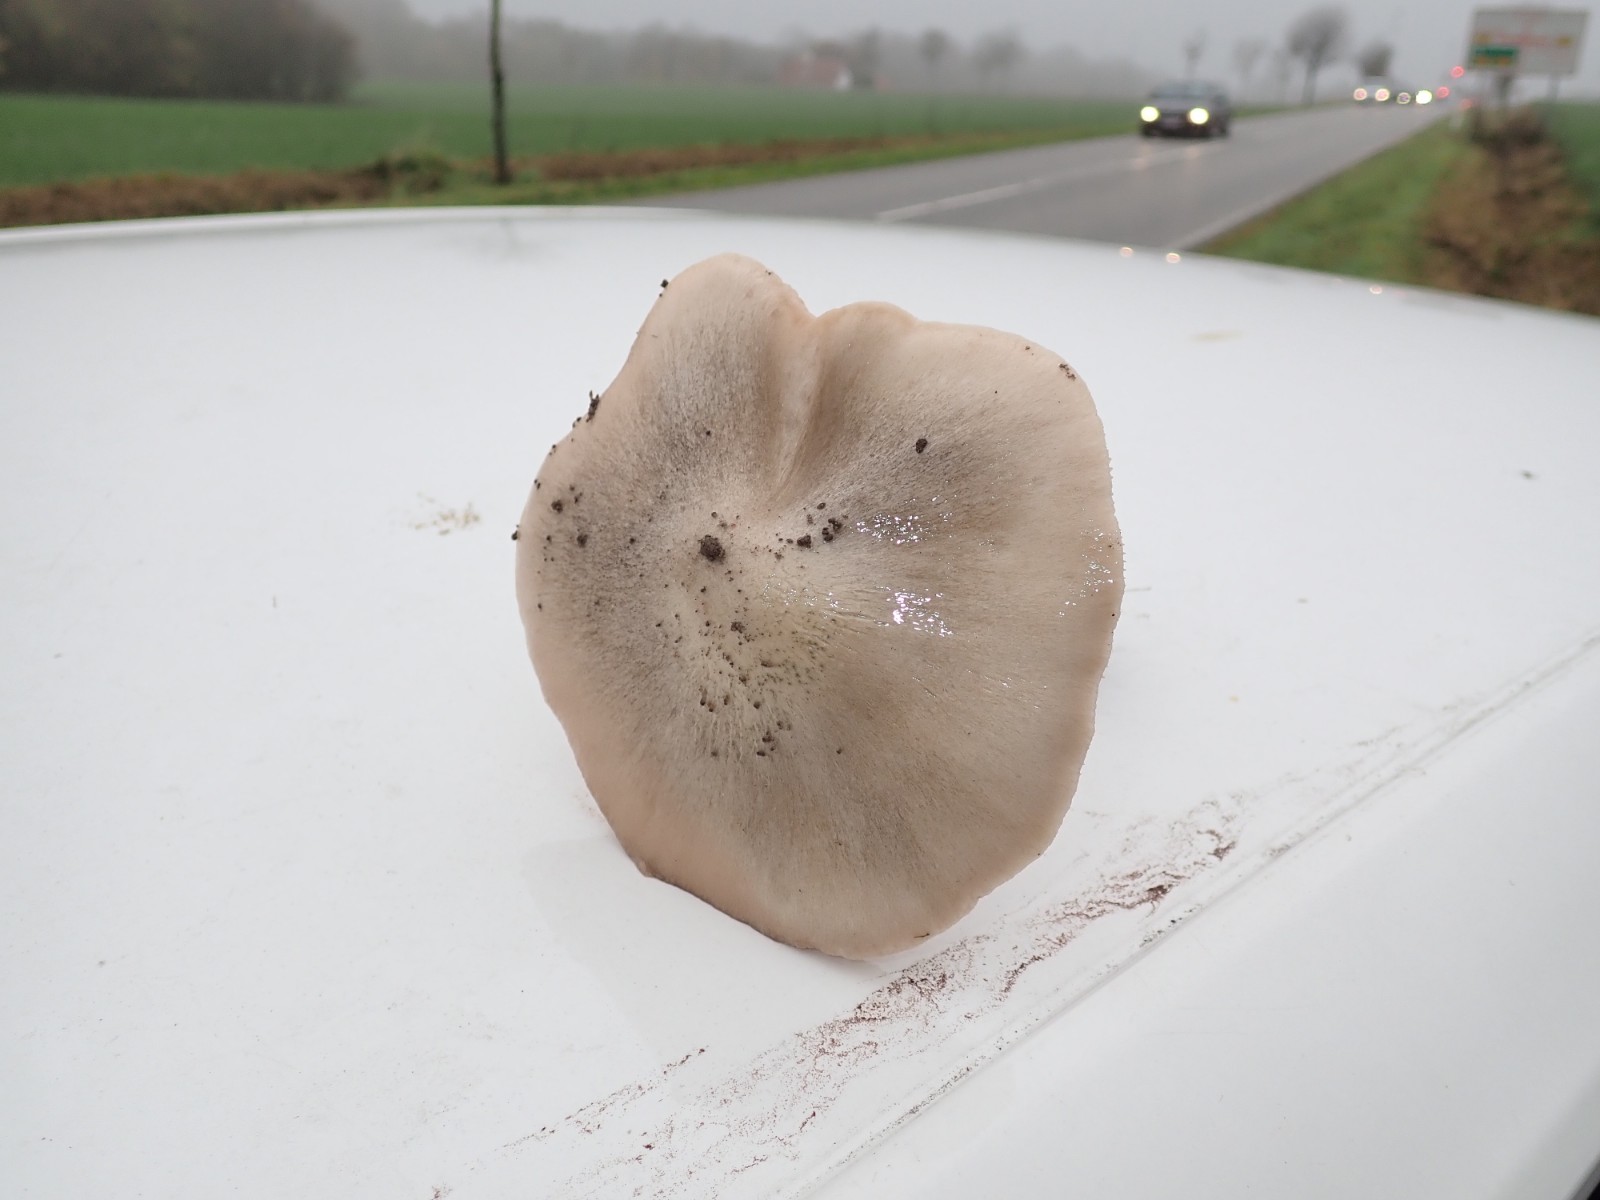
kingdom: Fungi
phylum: Basidiomycota
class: Agaricomycetes
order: Agaricales
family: Pluteaceae
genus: Volvopluteus
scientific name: Volvopluteus gloiocephalus
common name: høj posesvamp
